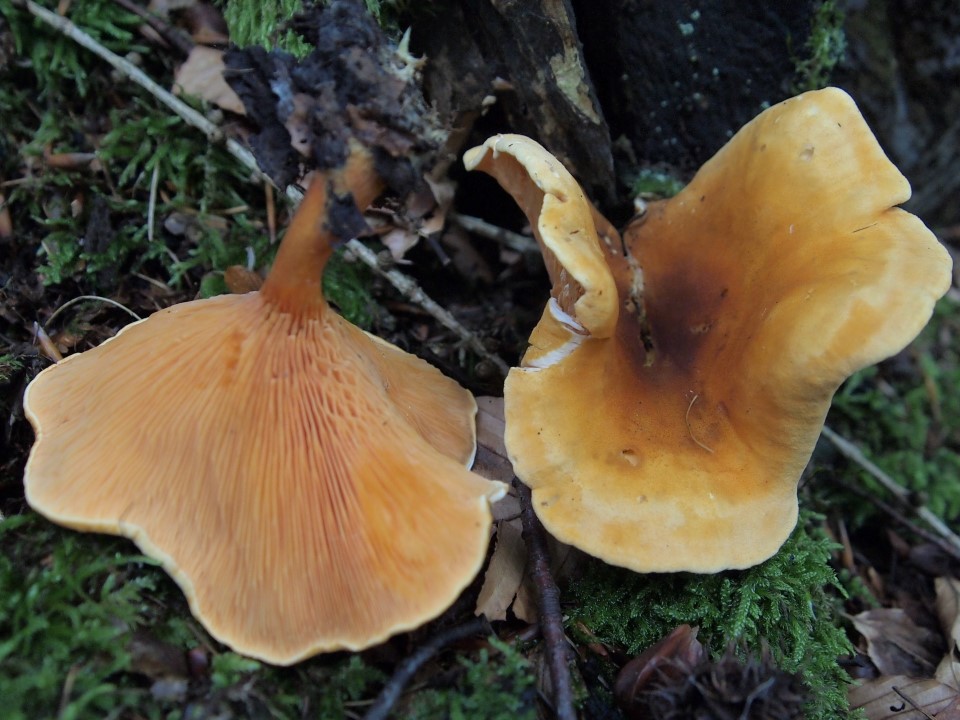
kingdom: Fungi
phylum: Basidiomycota
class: Agaricomycetes
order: Boletales
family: Hygrophoropsidaceae
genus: Hygrophoropsis
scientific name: Hygrophoropsis rufa
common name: brunfiltet orangekantarel
